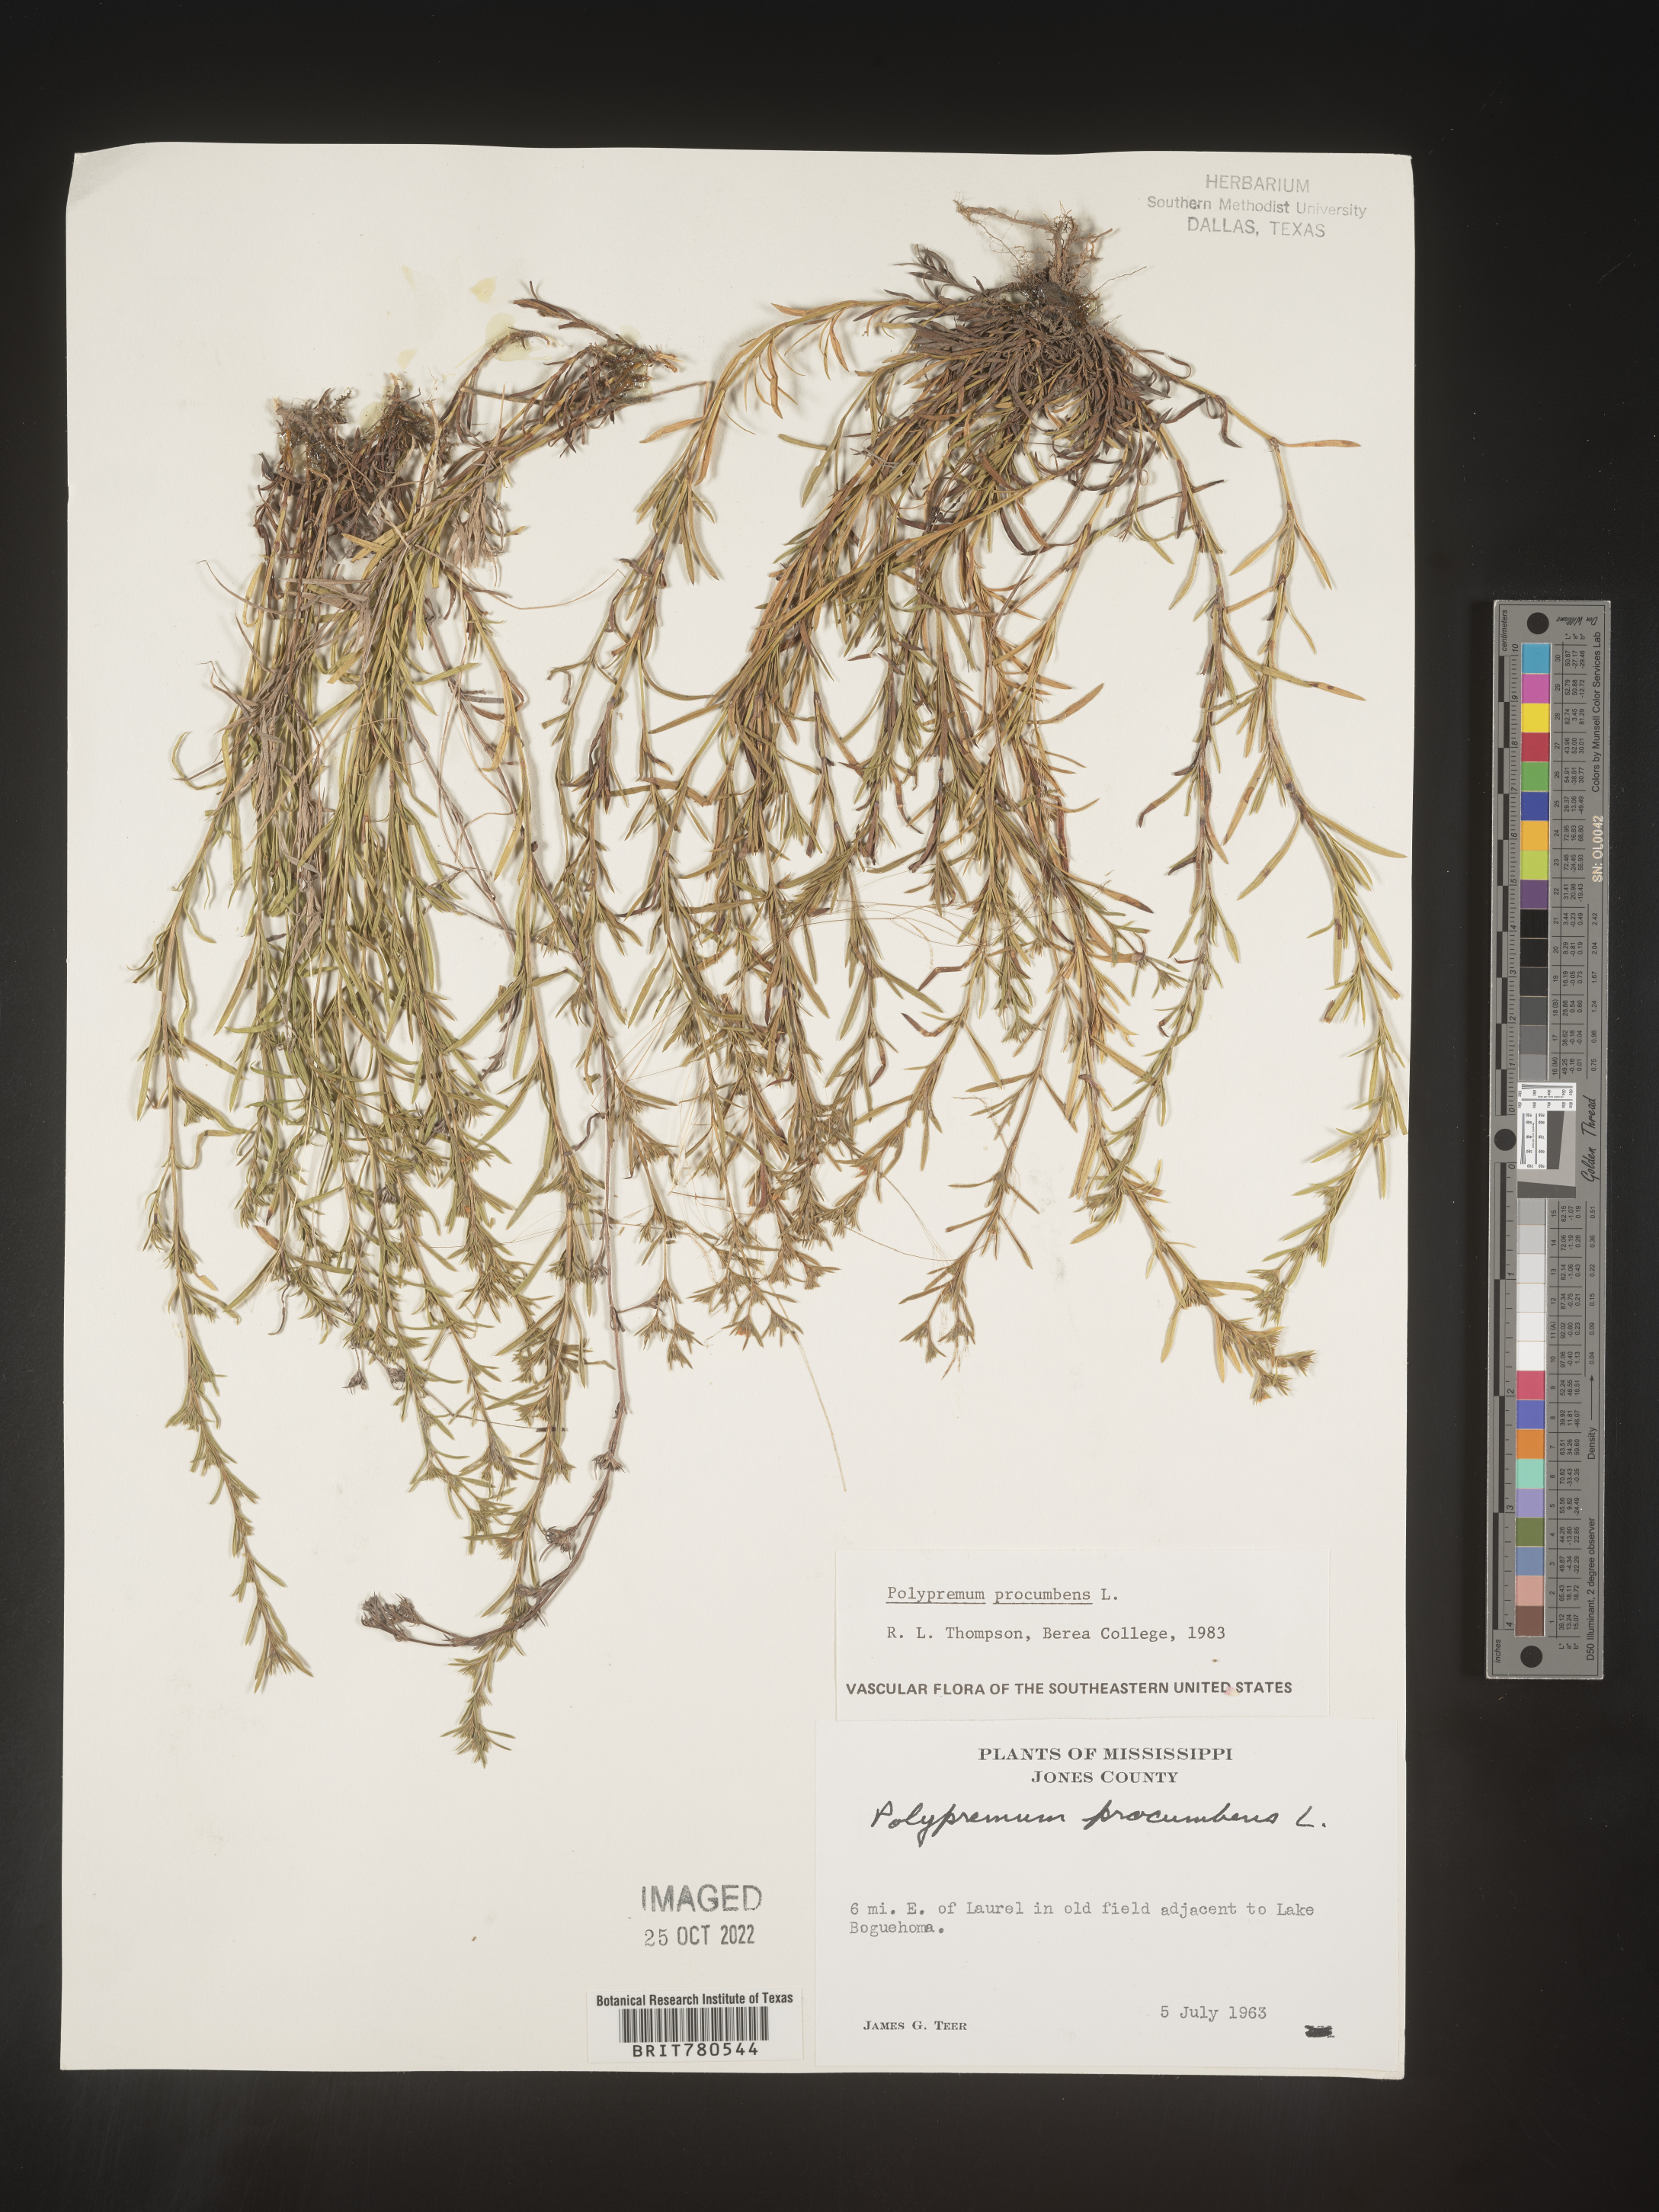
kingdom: Plantae
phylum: Tracheophyta
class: Magnoliopsida
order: Lamiales
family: Tetrachondraceae
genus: Polypremum
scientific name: Polypremum procumbens
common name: Juniper-leaf
